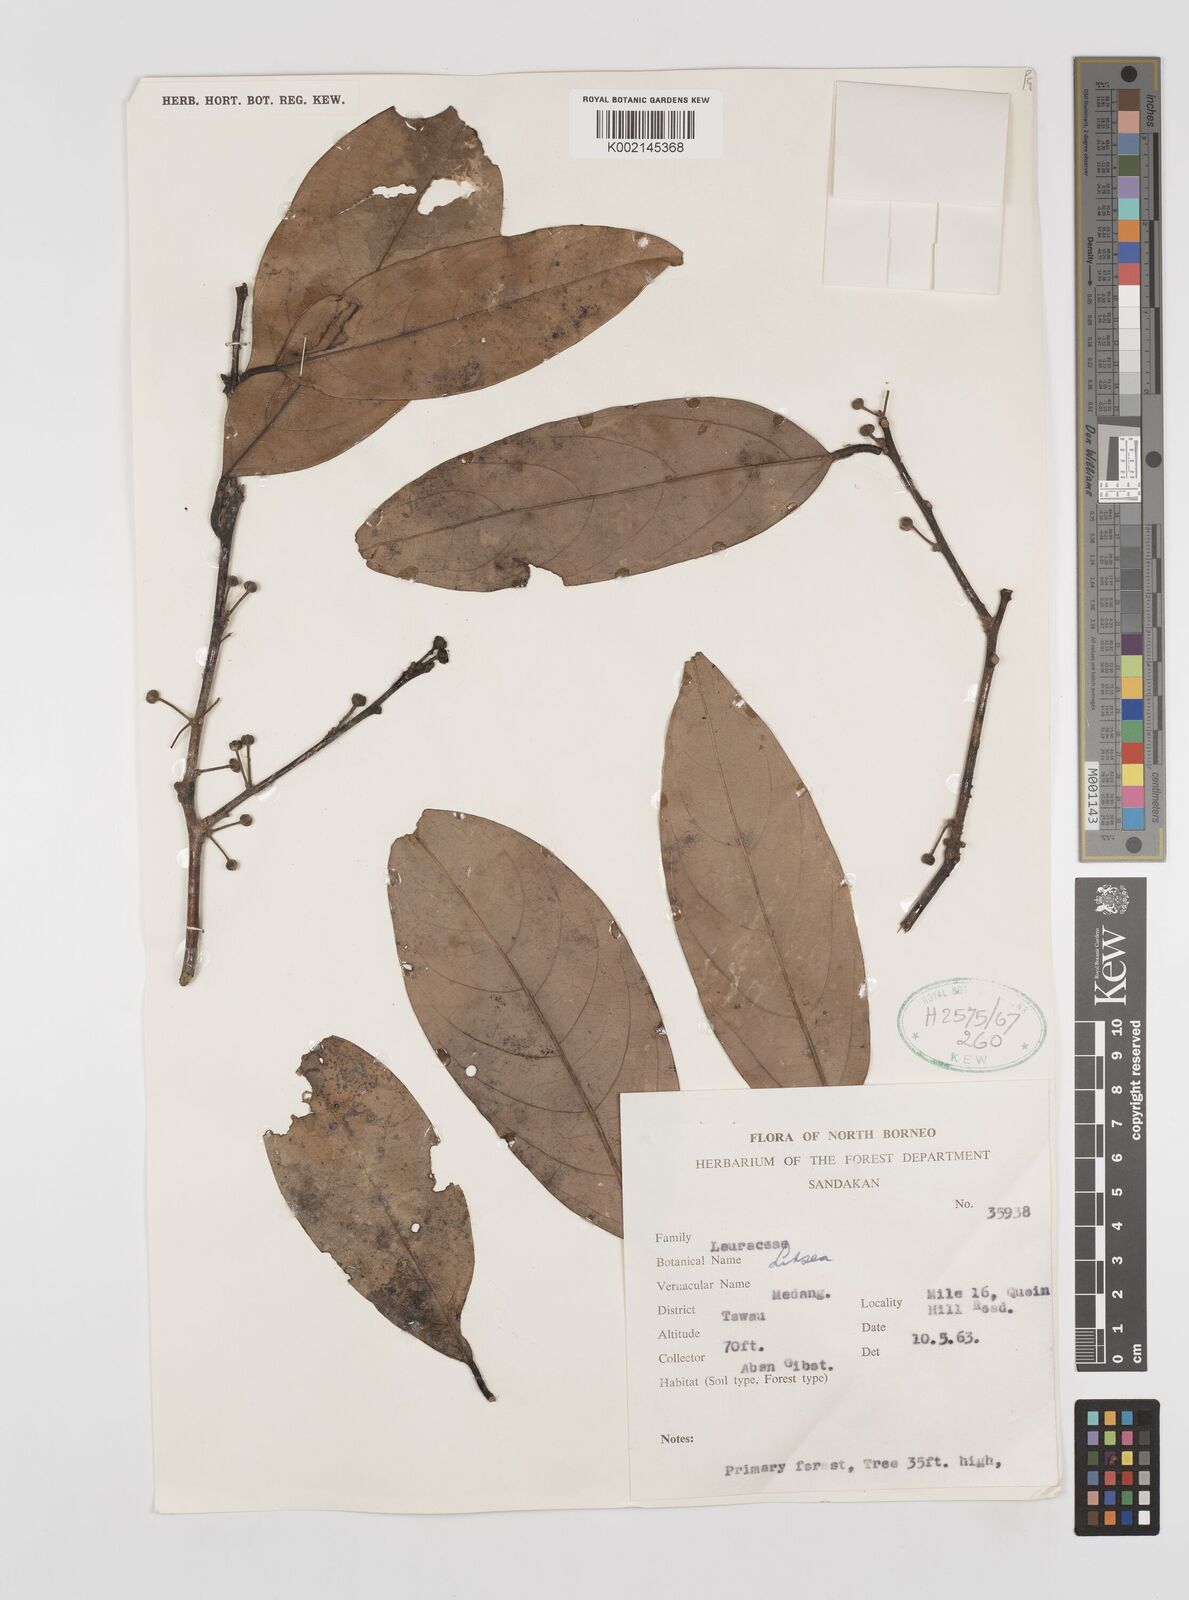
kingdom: Plantae
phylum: Tracheophyta
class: Magnoliopsida
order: Laurales
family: Lauraceae
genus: Litsea
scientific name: Litsea
